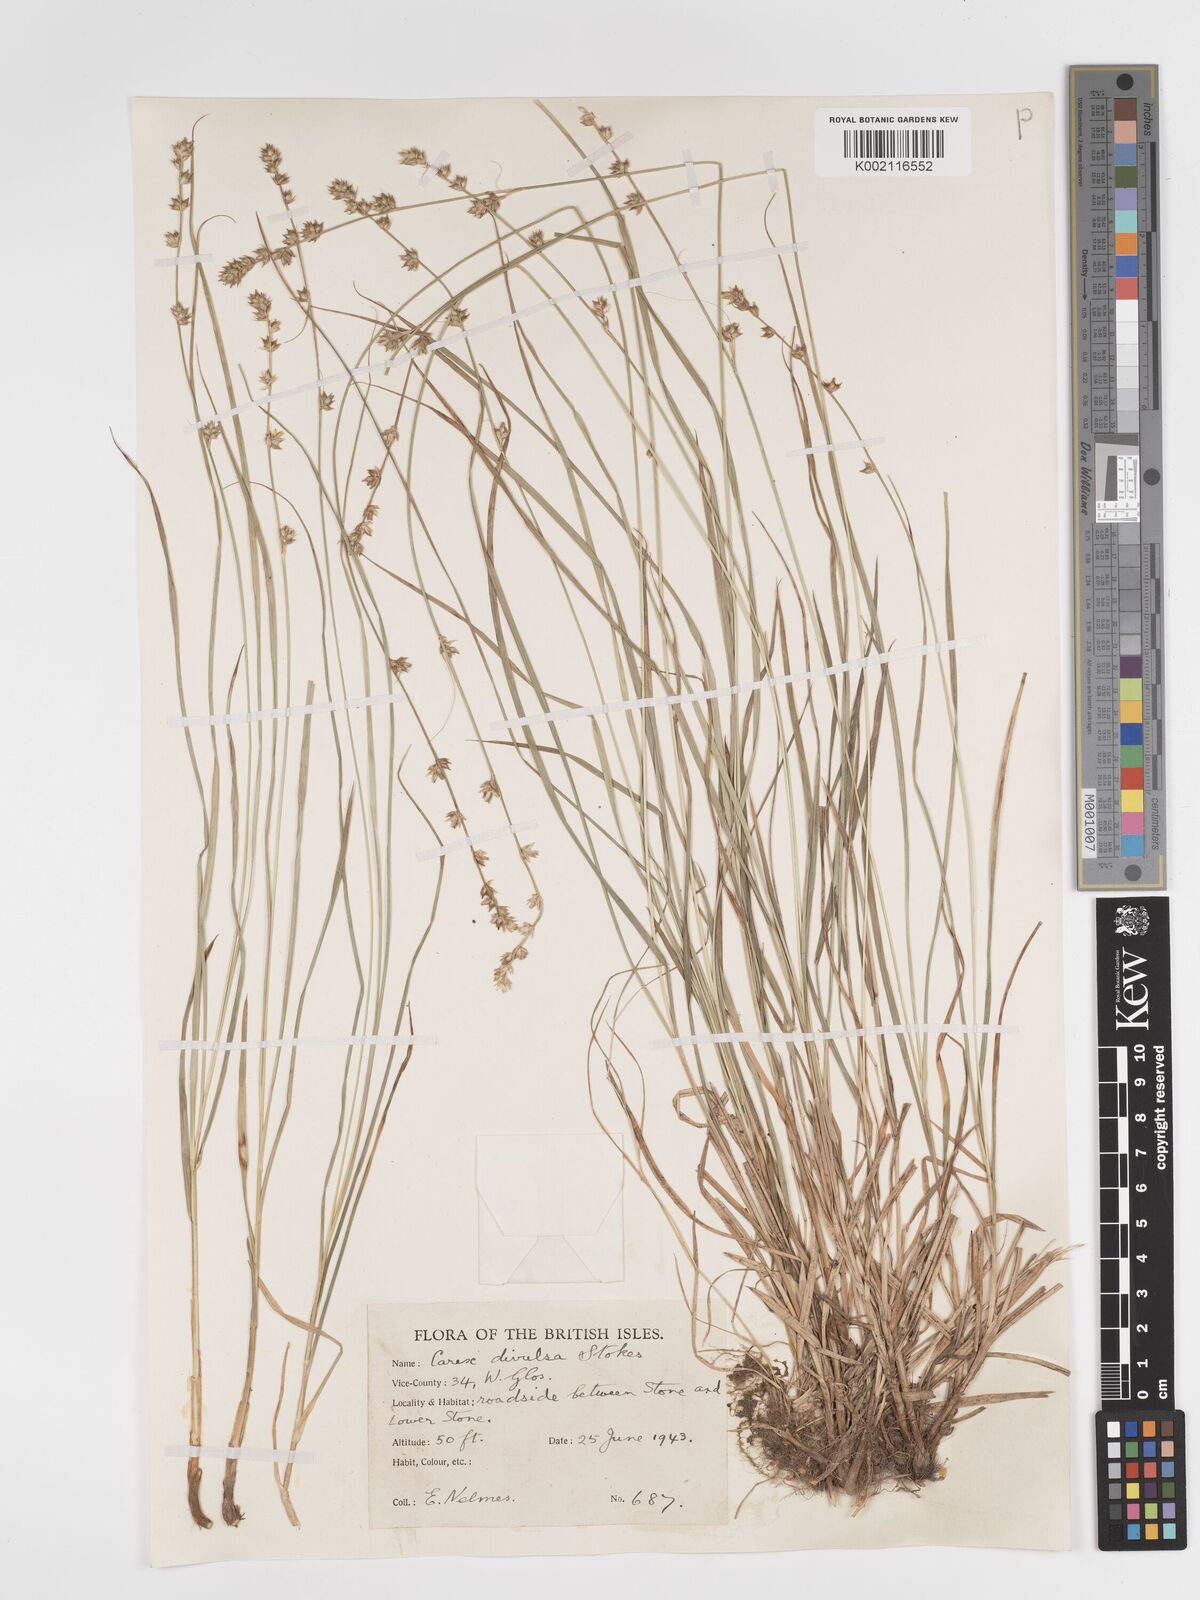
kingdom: Plantae
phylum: Tracheophyta
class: Liliopsida
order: Poales
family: Cyperaceae
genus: Carex
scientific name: Carex divulsa
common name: Grassland sedge
